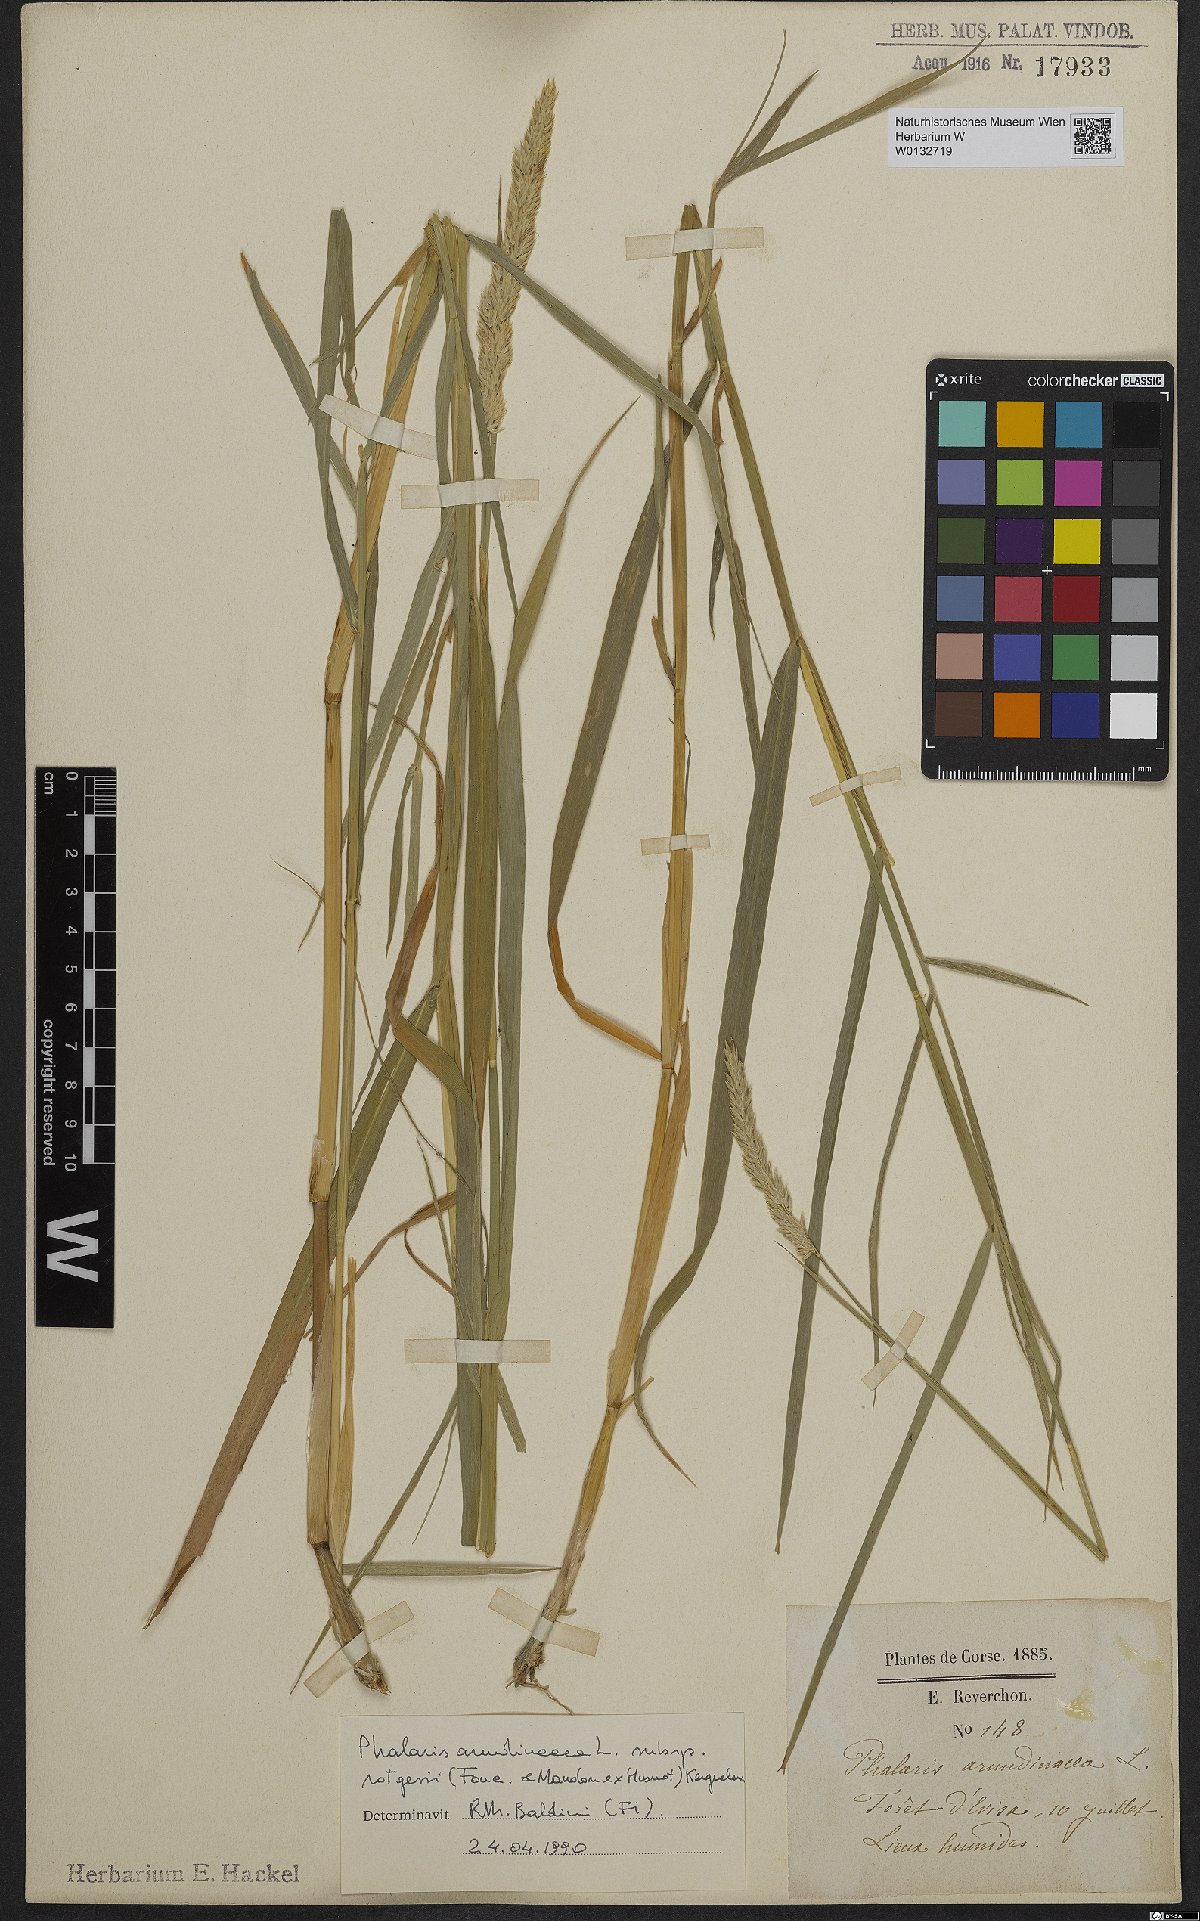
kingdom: Plantae
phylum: Tracheophyta
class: Liliopsida
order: Poales
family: Poaceae
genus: Phalaris
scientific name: Phalaris arundinacea
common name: Reed canary-grass
